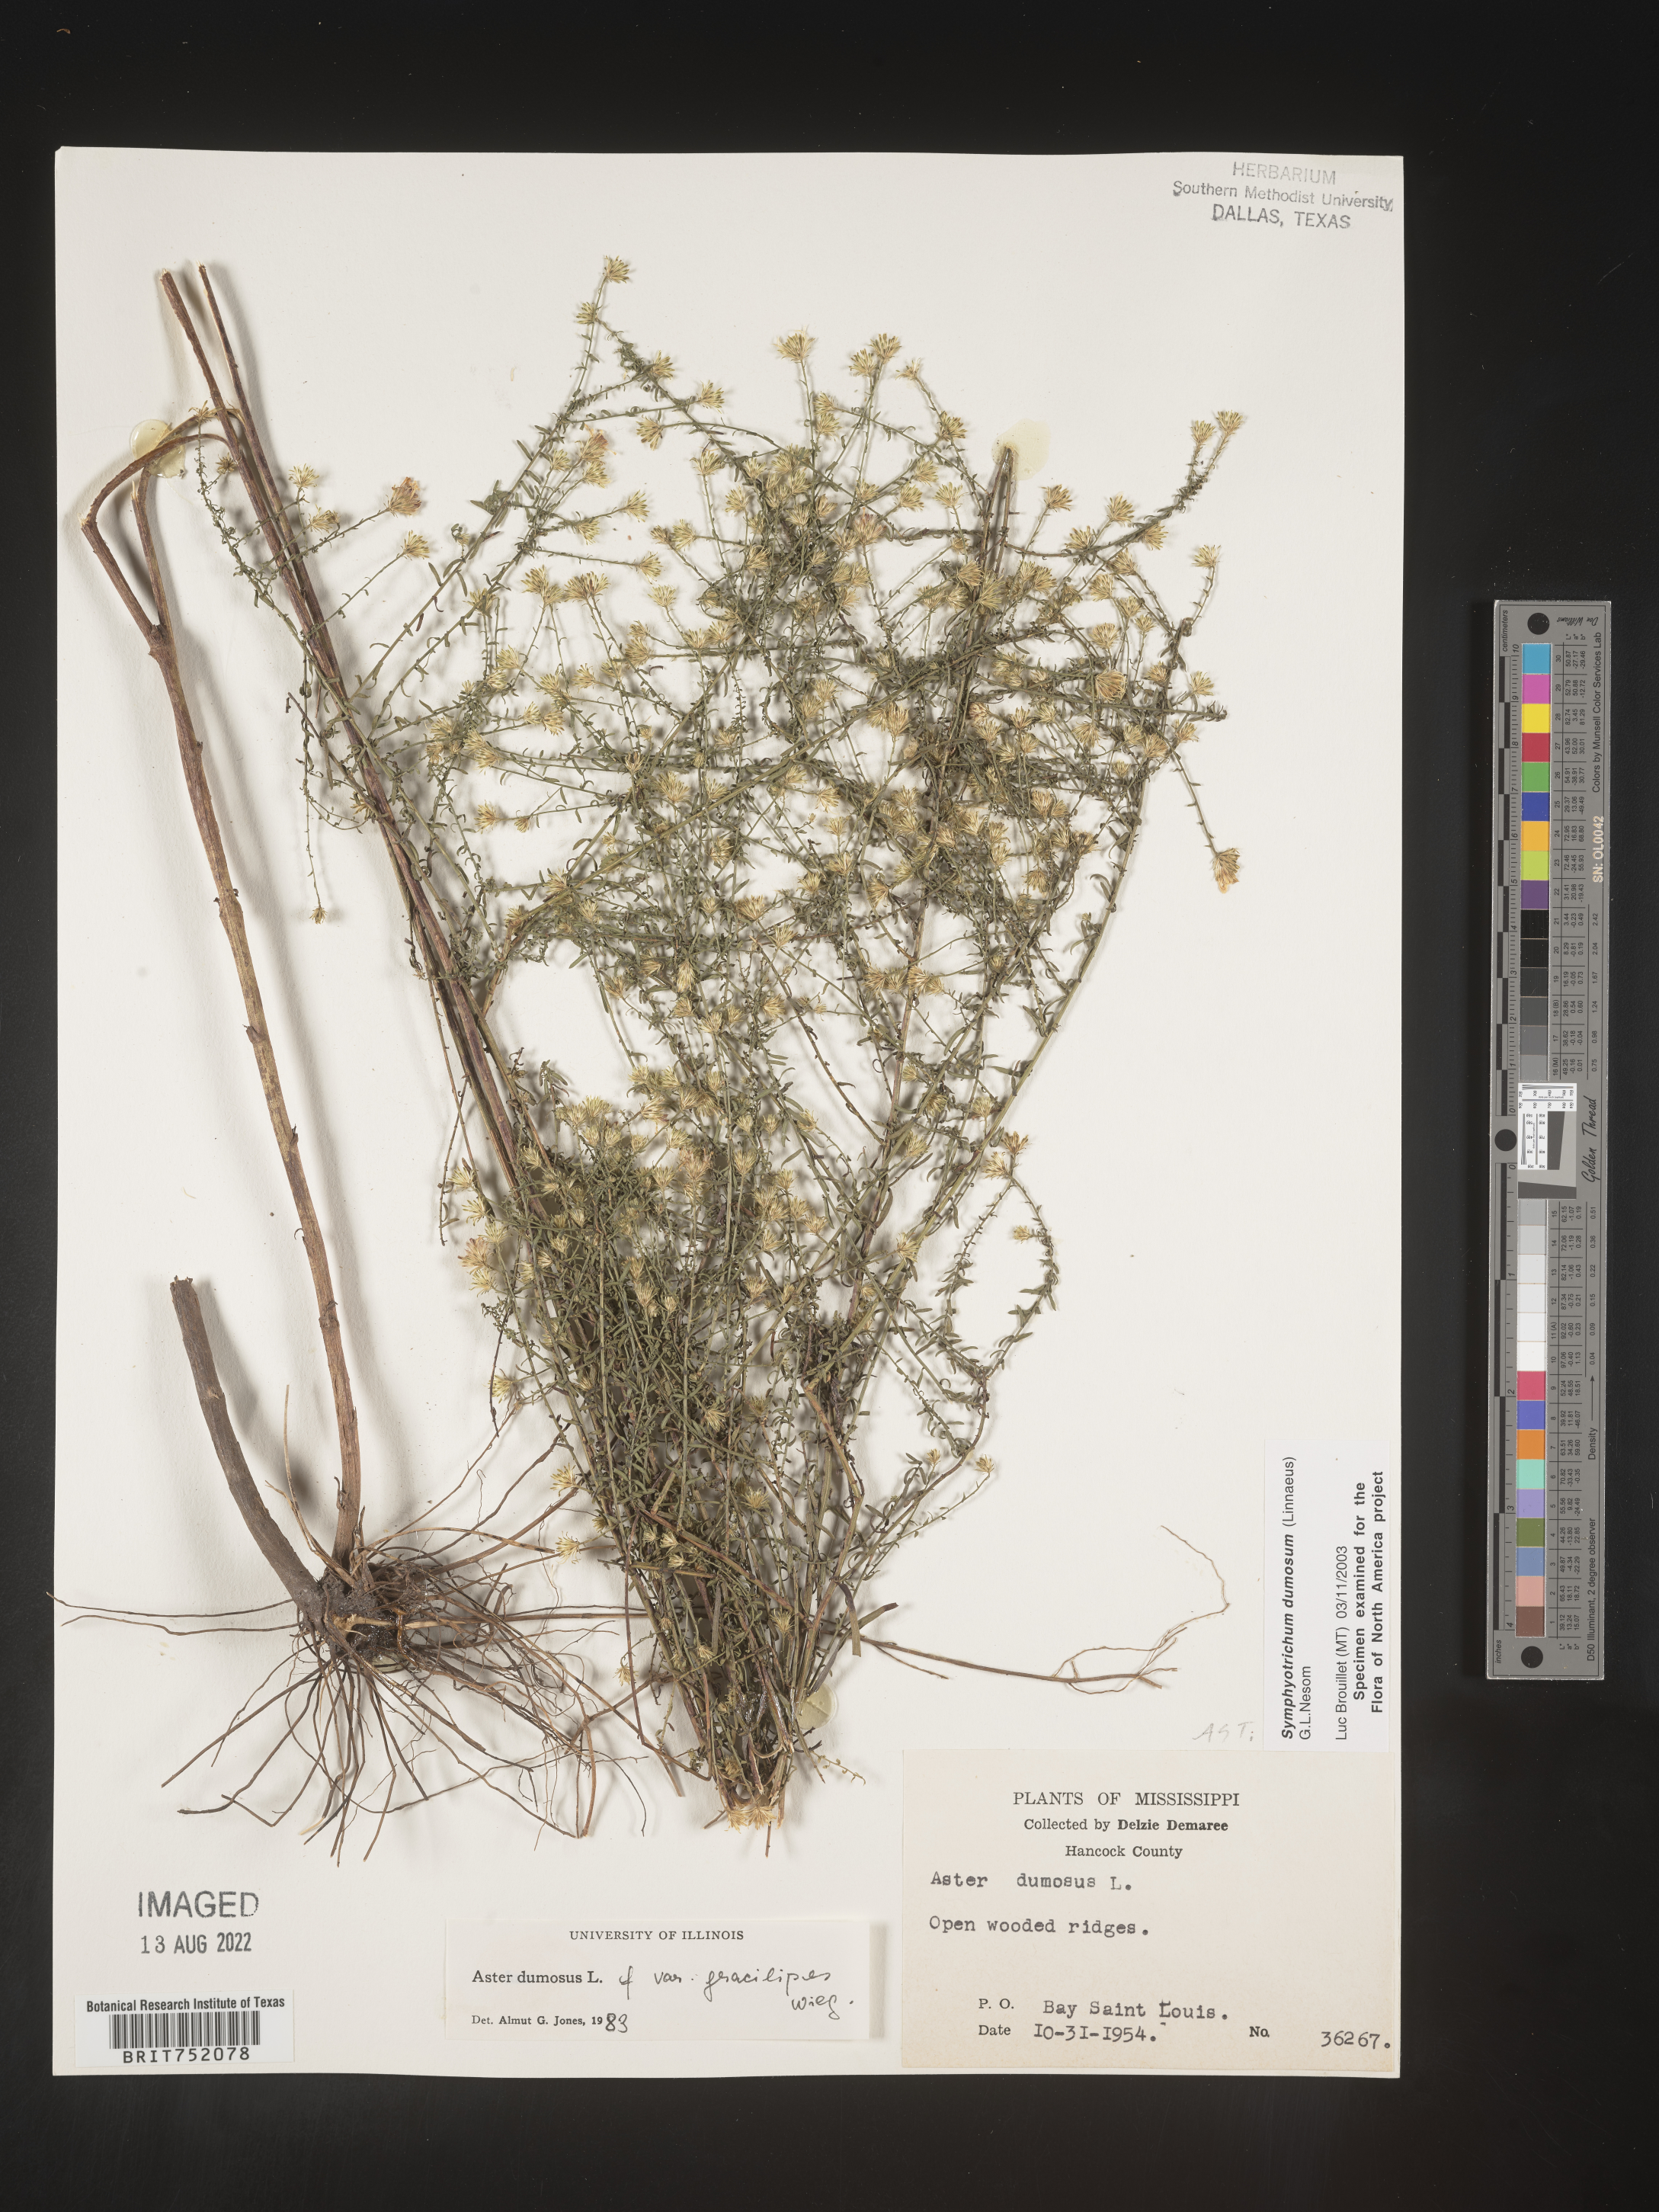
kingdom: Plantae
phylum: Tracheophyta
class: Magnoliopsida
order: Asterales
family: Asteraceae
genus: Symphyotrichum
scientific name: Symphyotrichum dumosum
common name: Bushy aster
